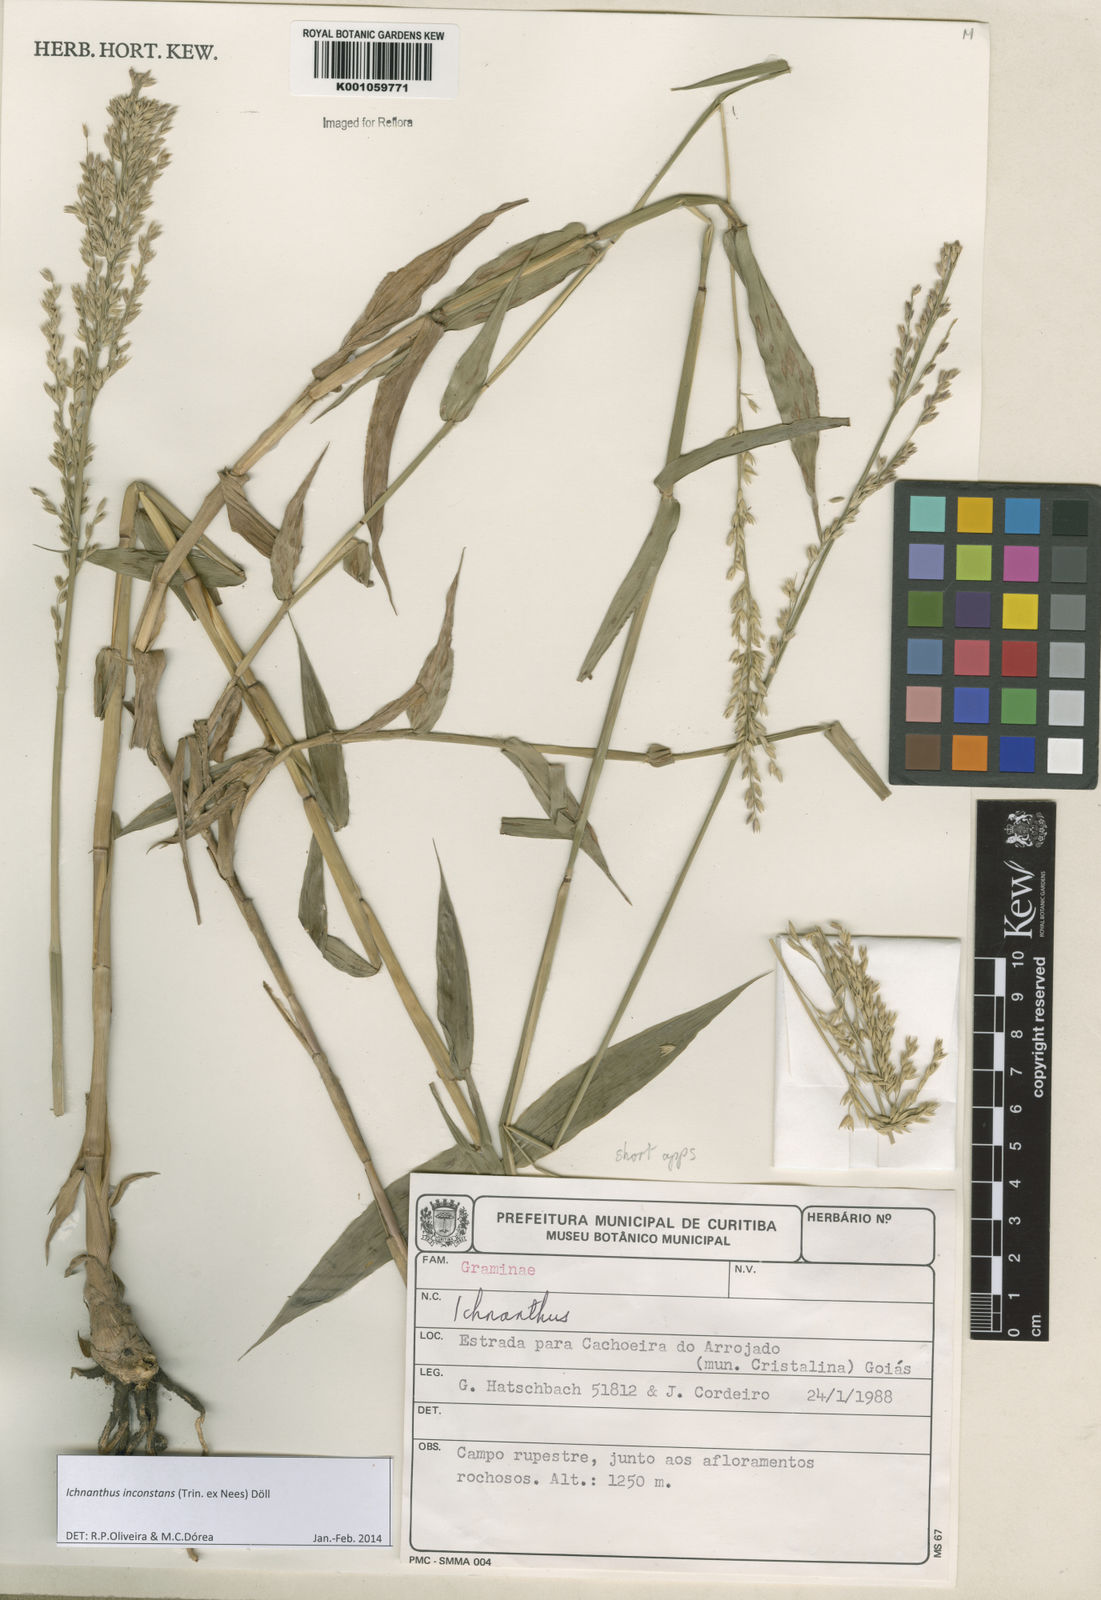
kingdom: Plantae
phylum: Tracheophyta
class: Liliopsida
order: Poales
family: Poaceae
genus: Ichnanthus
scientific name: Ichnanthus
